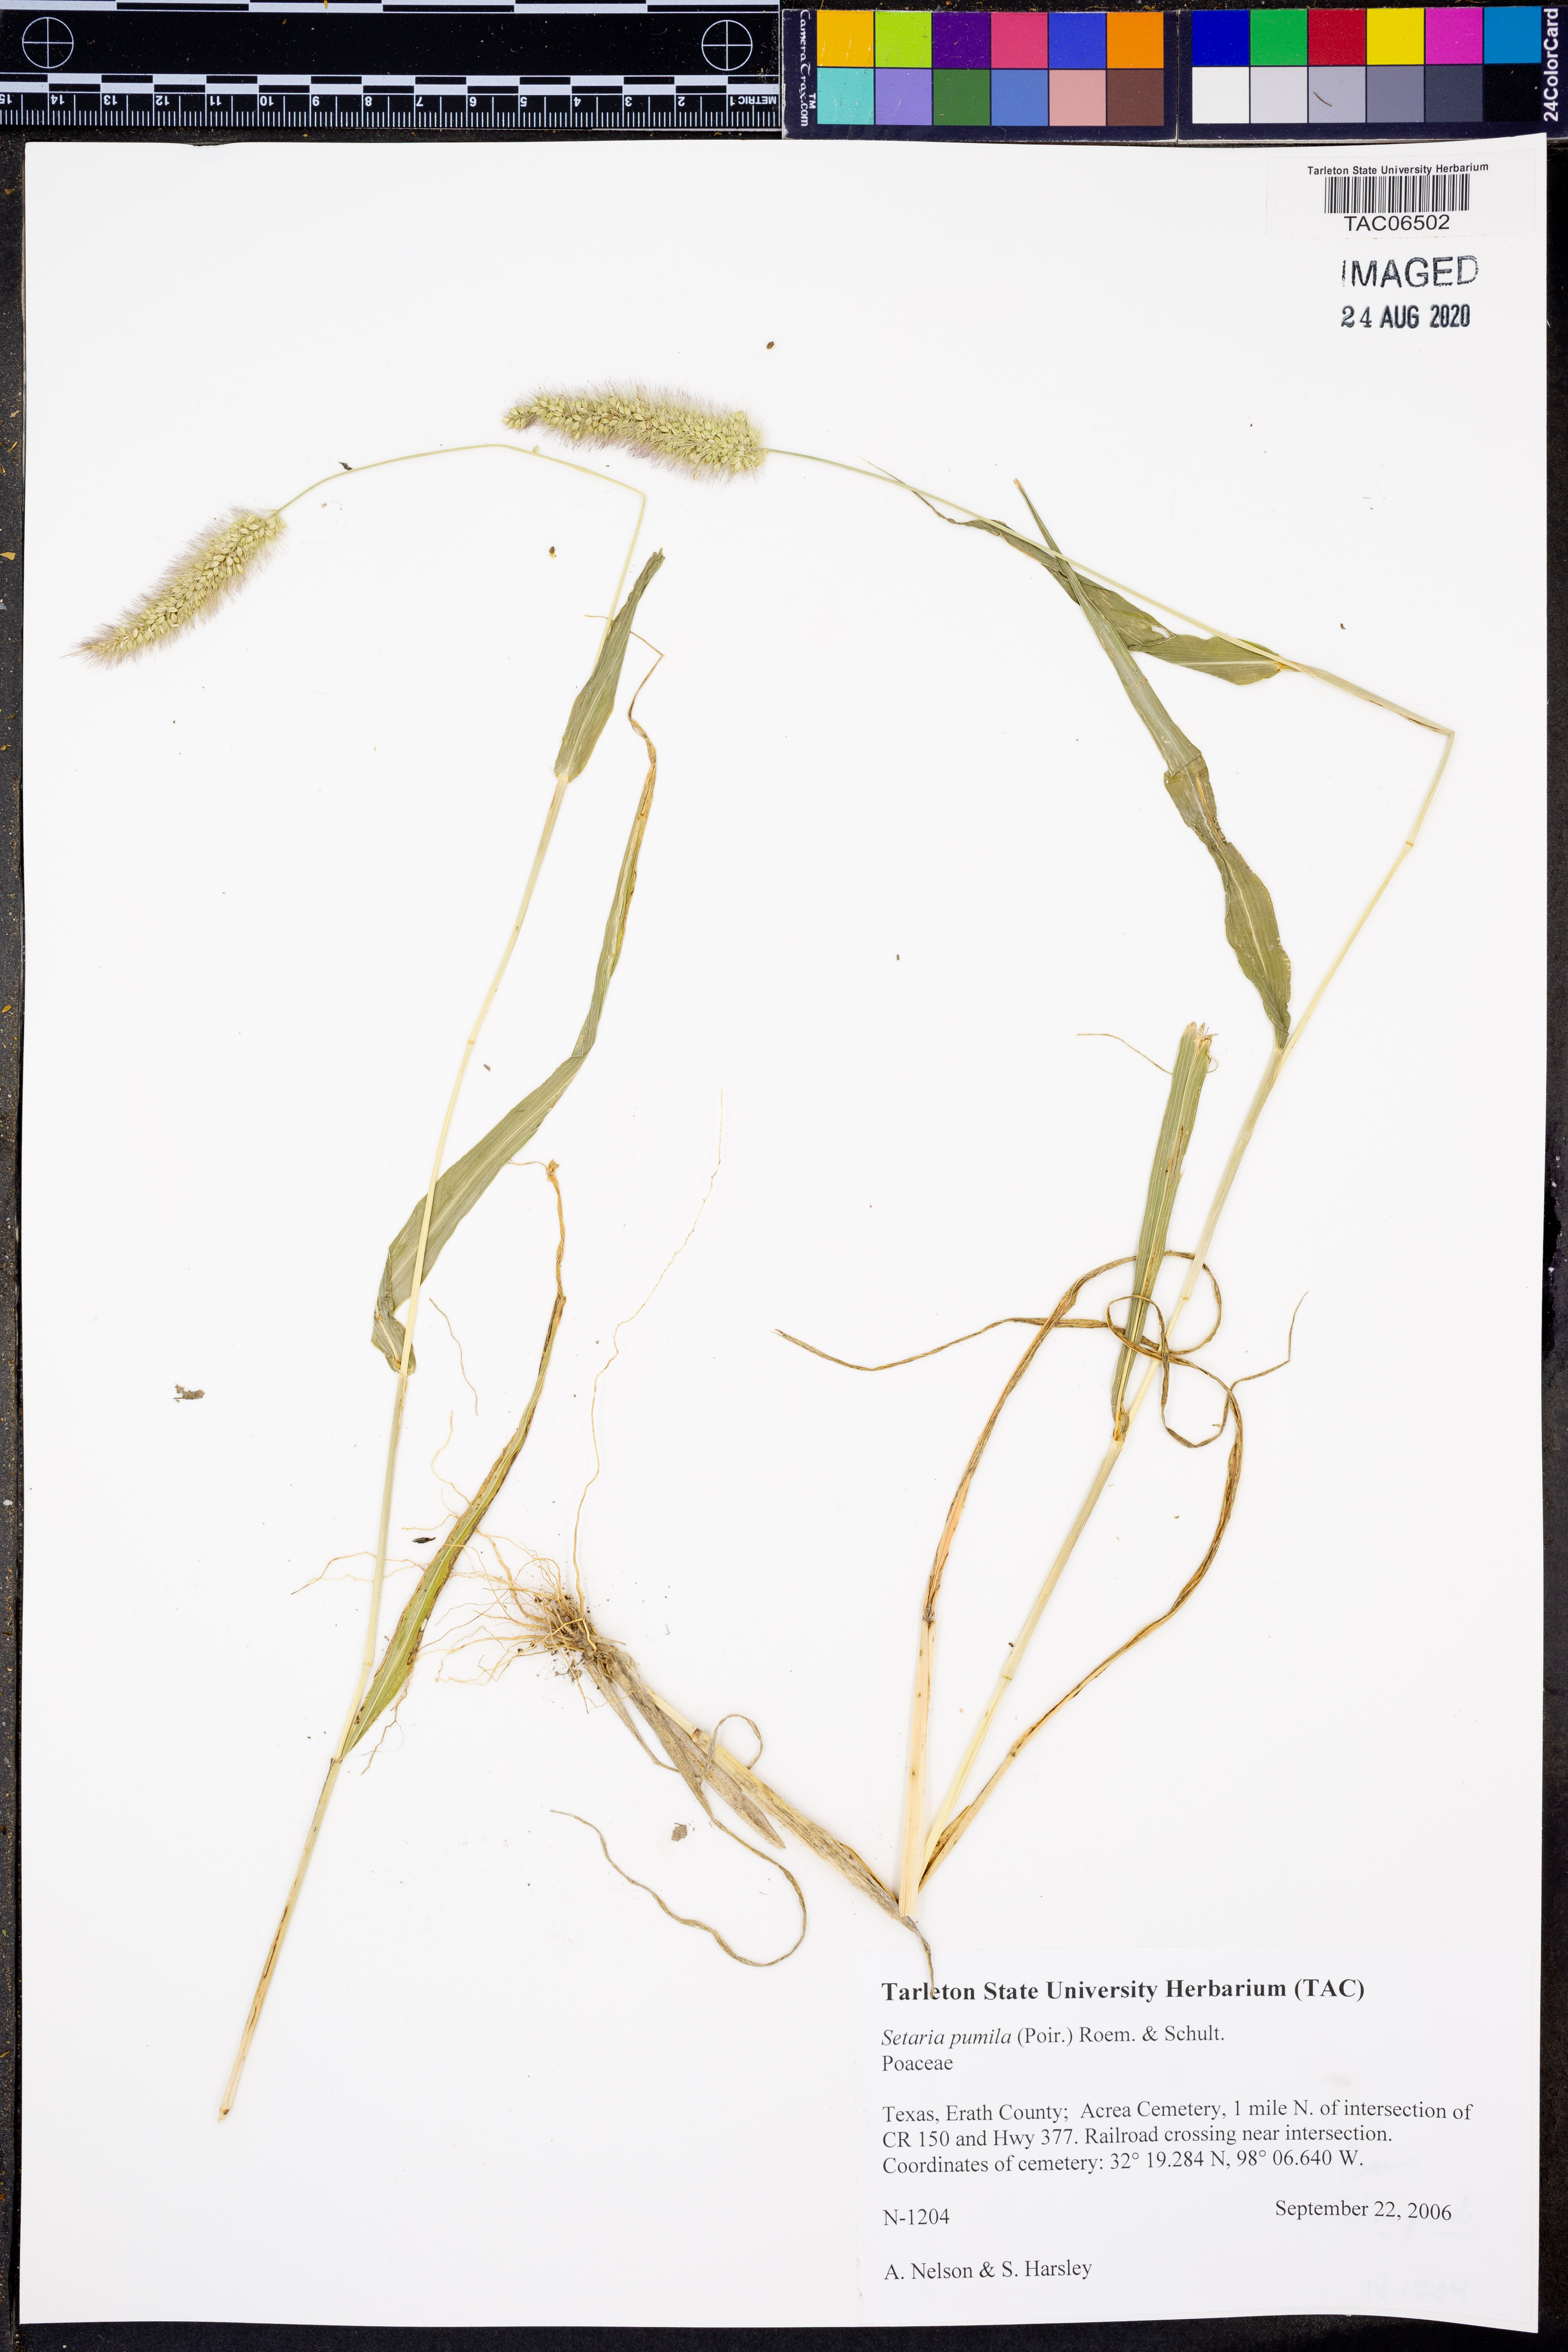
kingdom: Plantae
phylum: Tracheophyta
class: Liliopsida
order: Poales
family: Poaceae
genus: Setaria
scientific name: Setaria pumila
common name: Yellow bristle-grass
